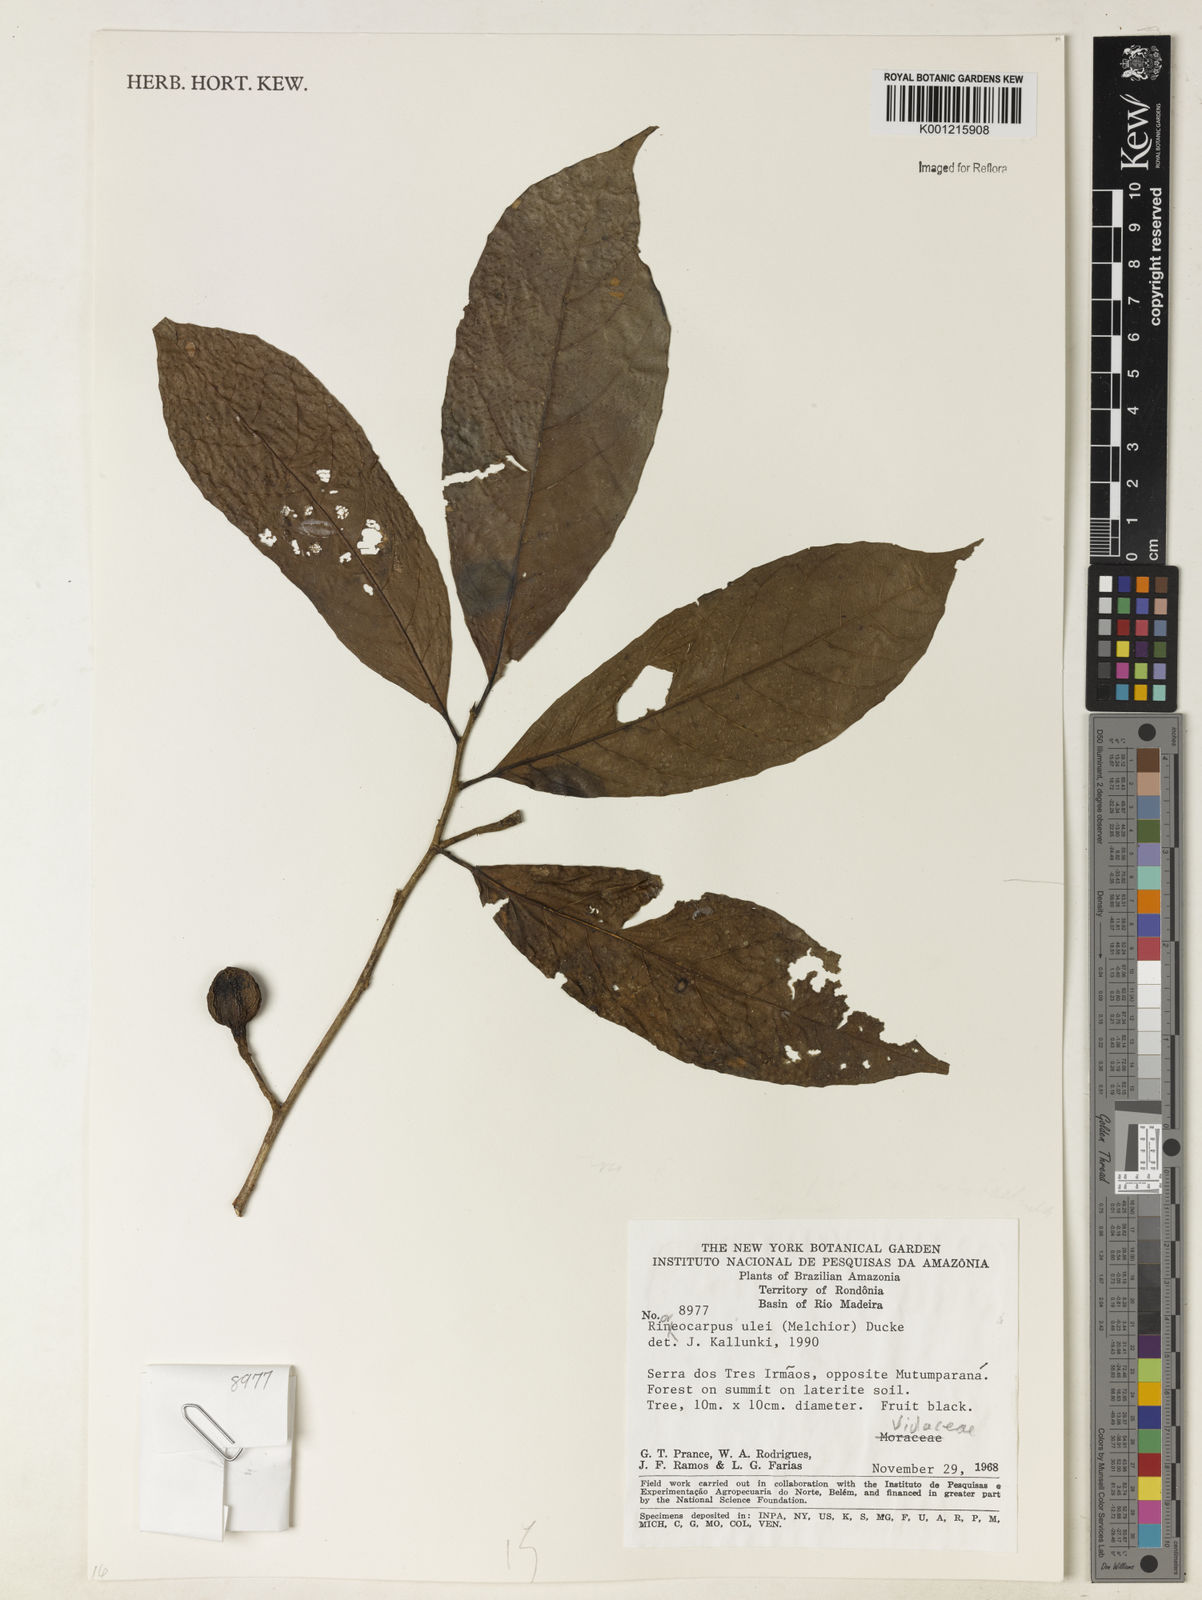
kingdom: Plantae
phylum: Tracheophyta
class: Magnoliopsida
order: Malpighiales
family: Violaceae
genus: Rinorea
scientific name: Rinorea
